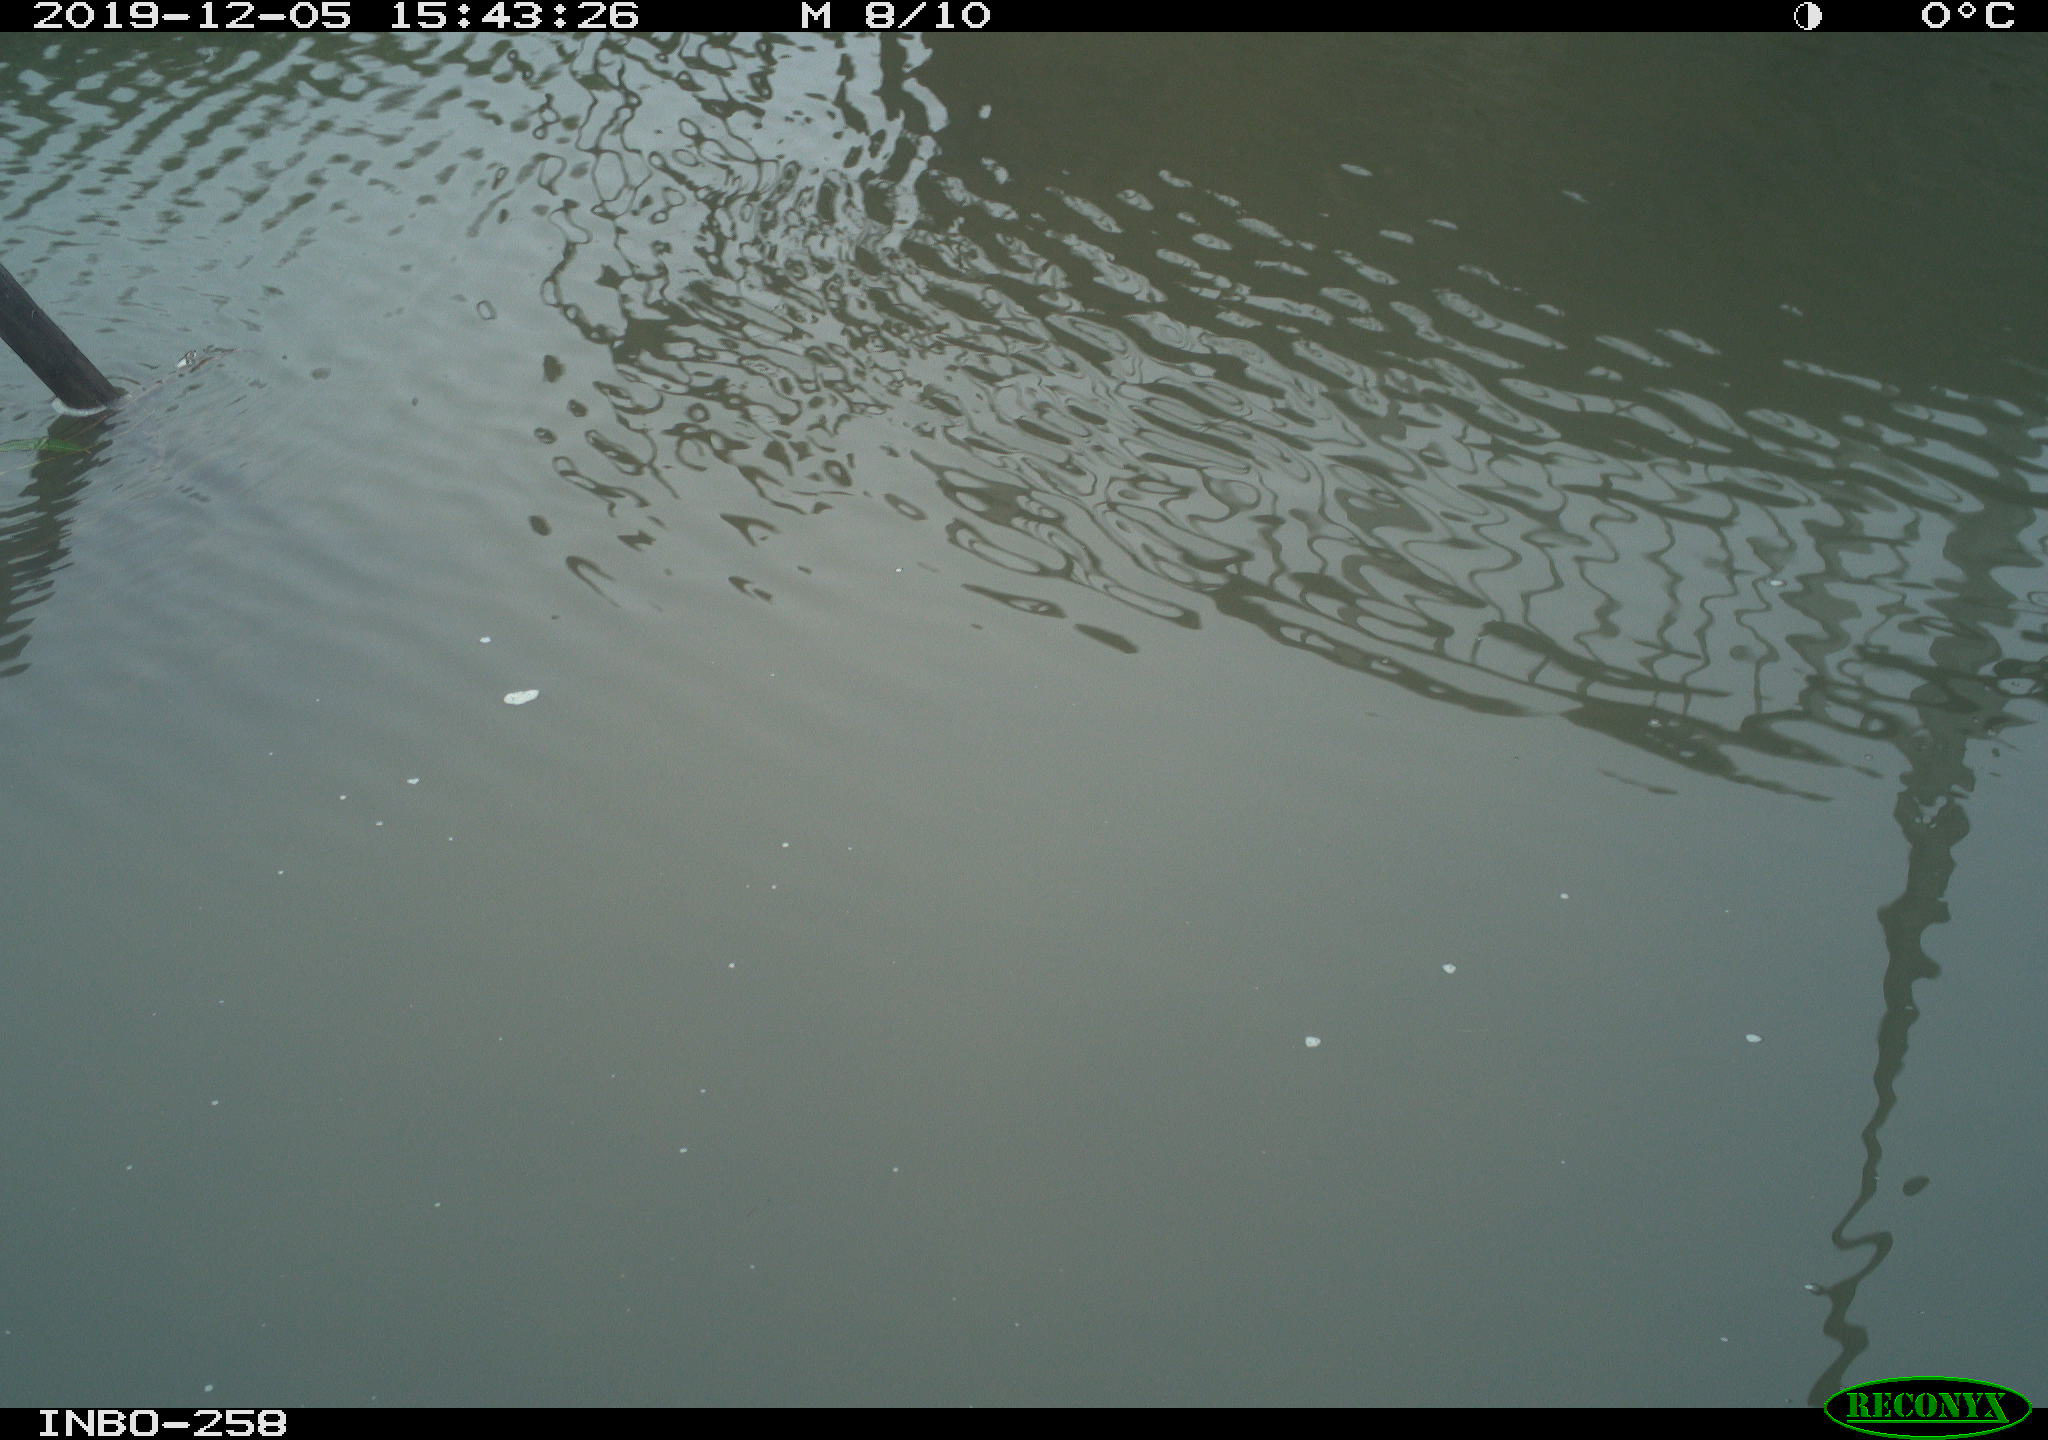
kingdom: Animalia
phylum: Chordata
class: Aves
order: Gruiformes
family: Rallidae
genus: Gallinula
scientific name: Gallinula chloropus
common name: Common moorhen
